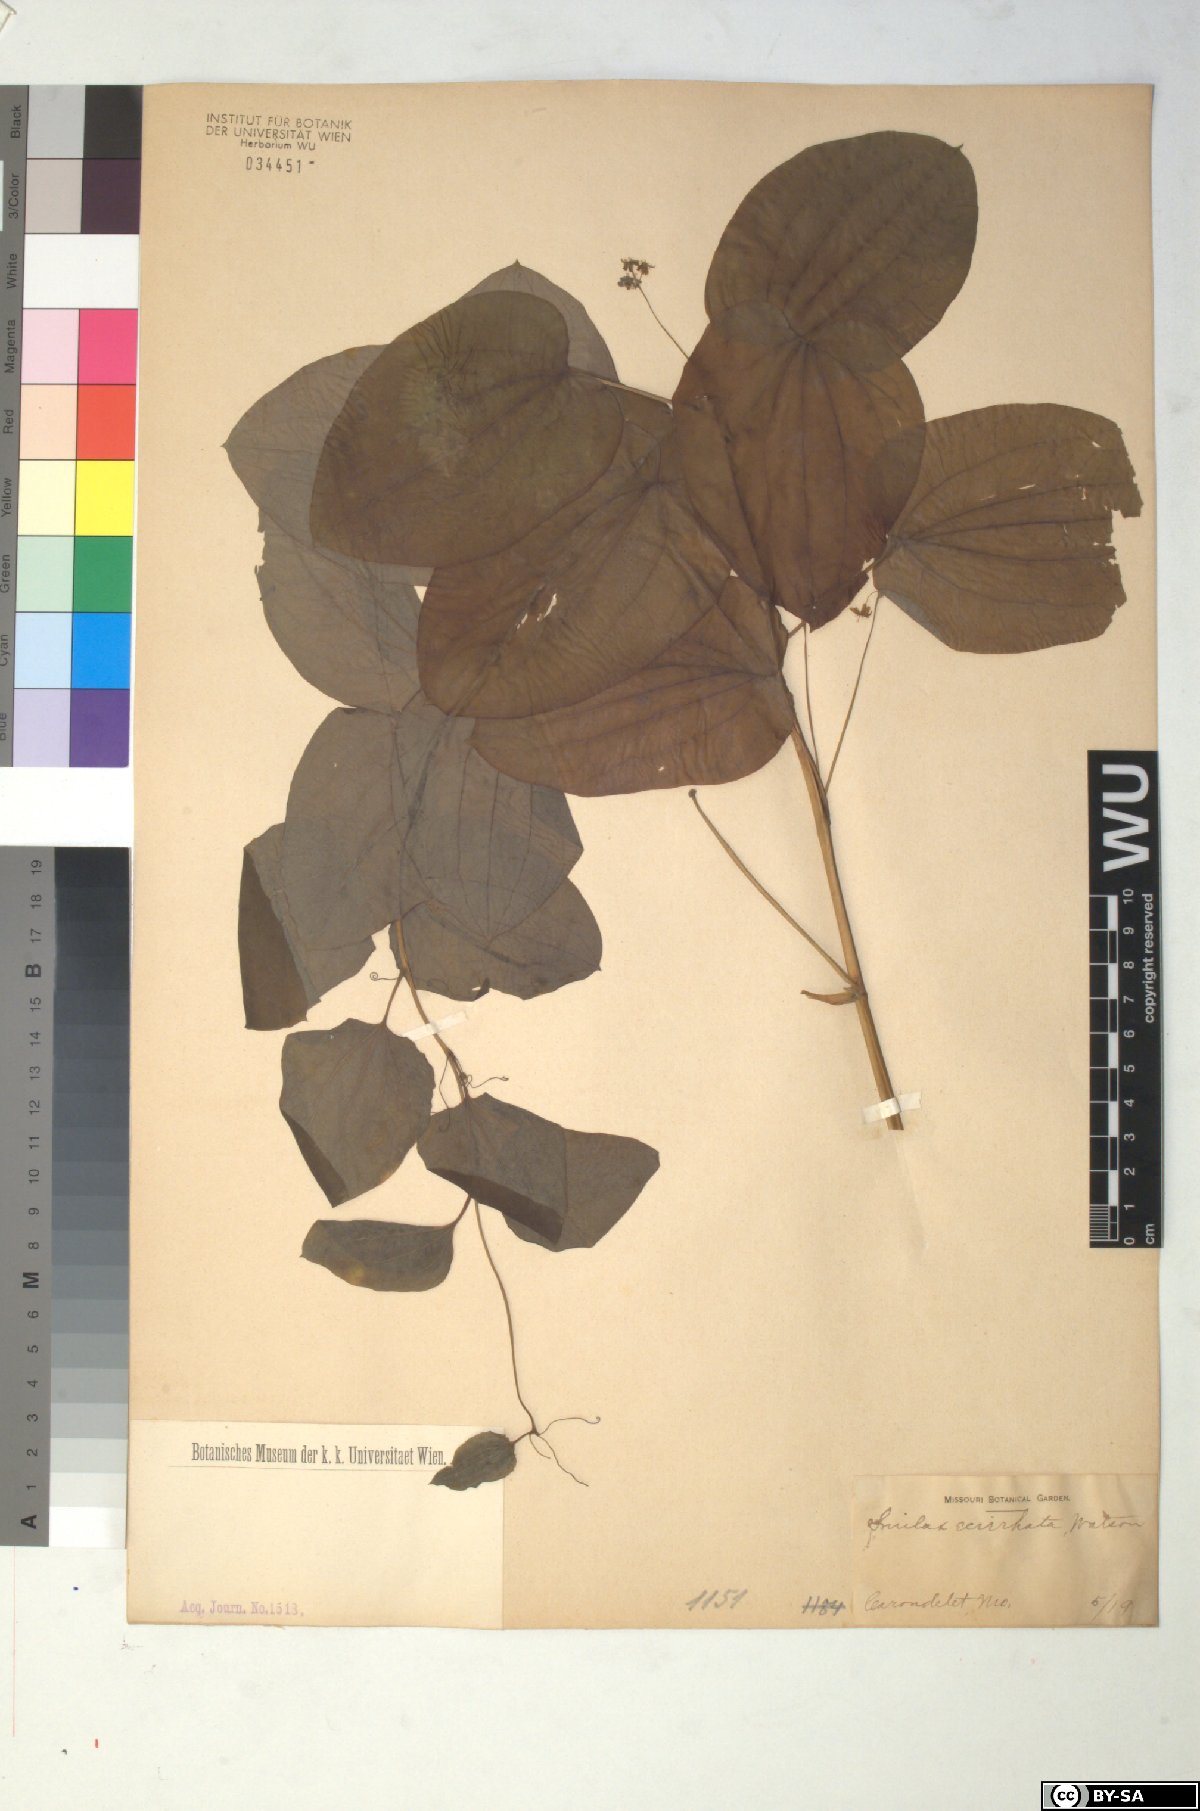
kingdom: Plantae
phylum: Tracheophyta
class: Liliopsida
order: Liliales
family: Smilacaceae
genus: Smilax
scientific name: Smilax ecirrhata
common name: Upright carrionflower
